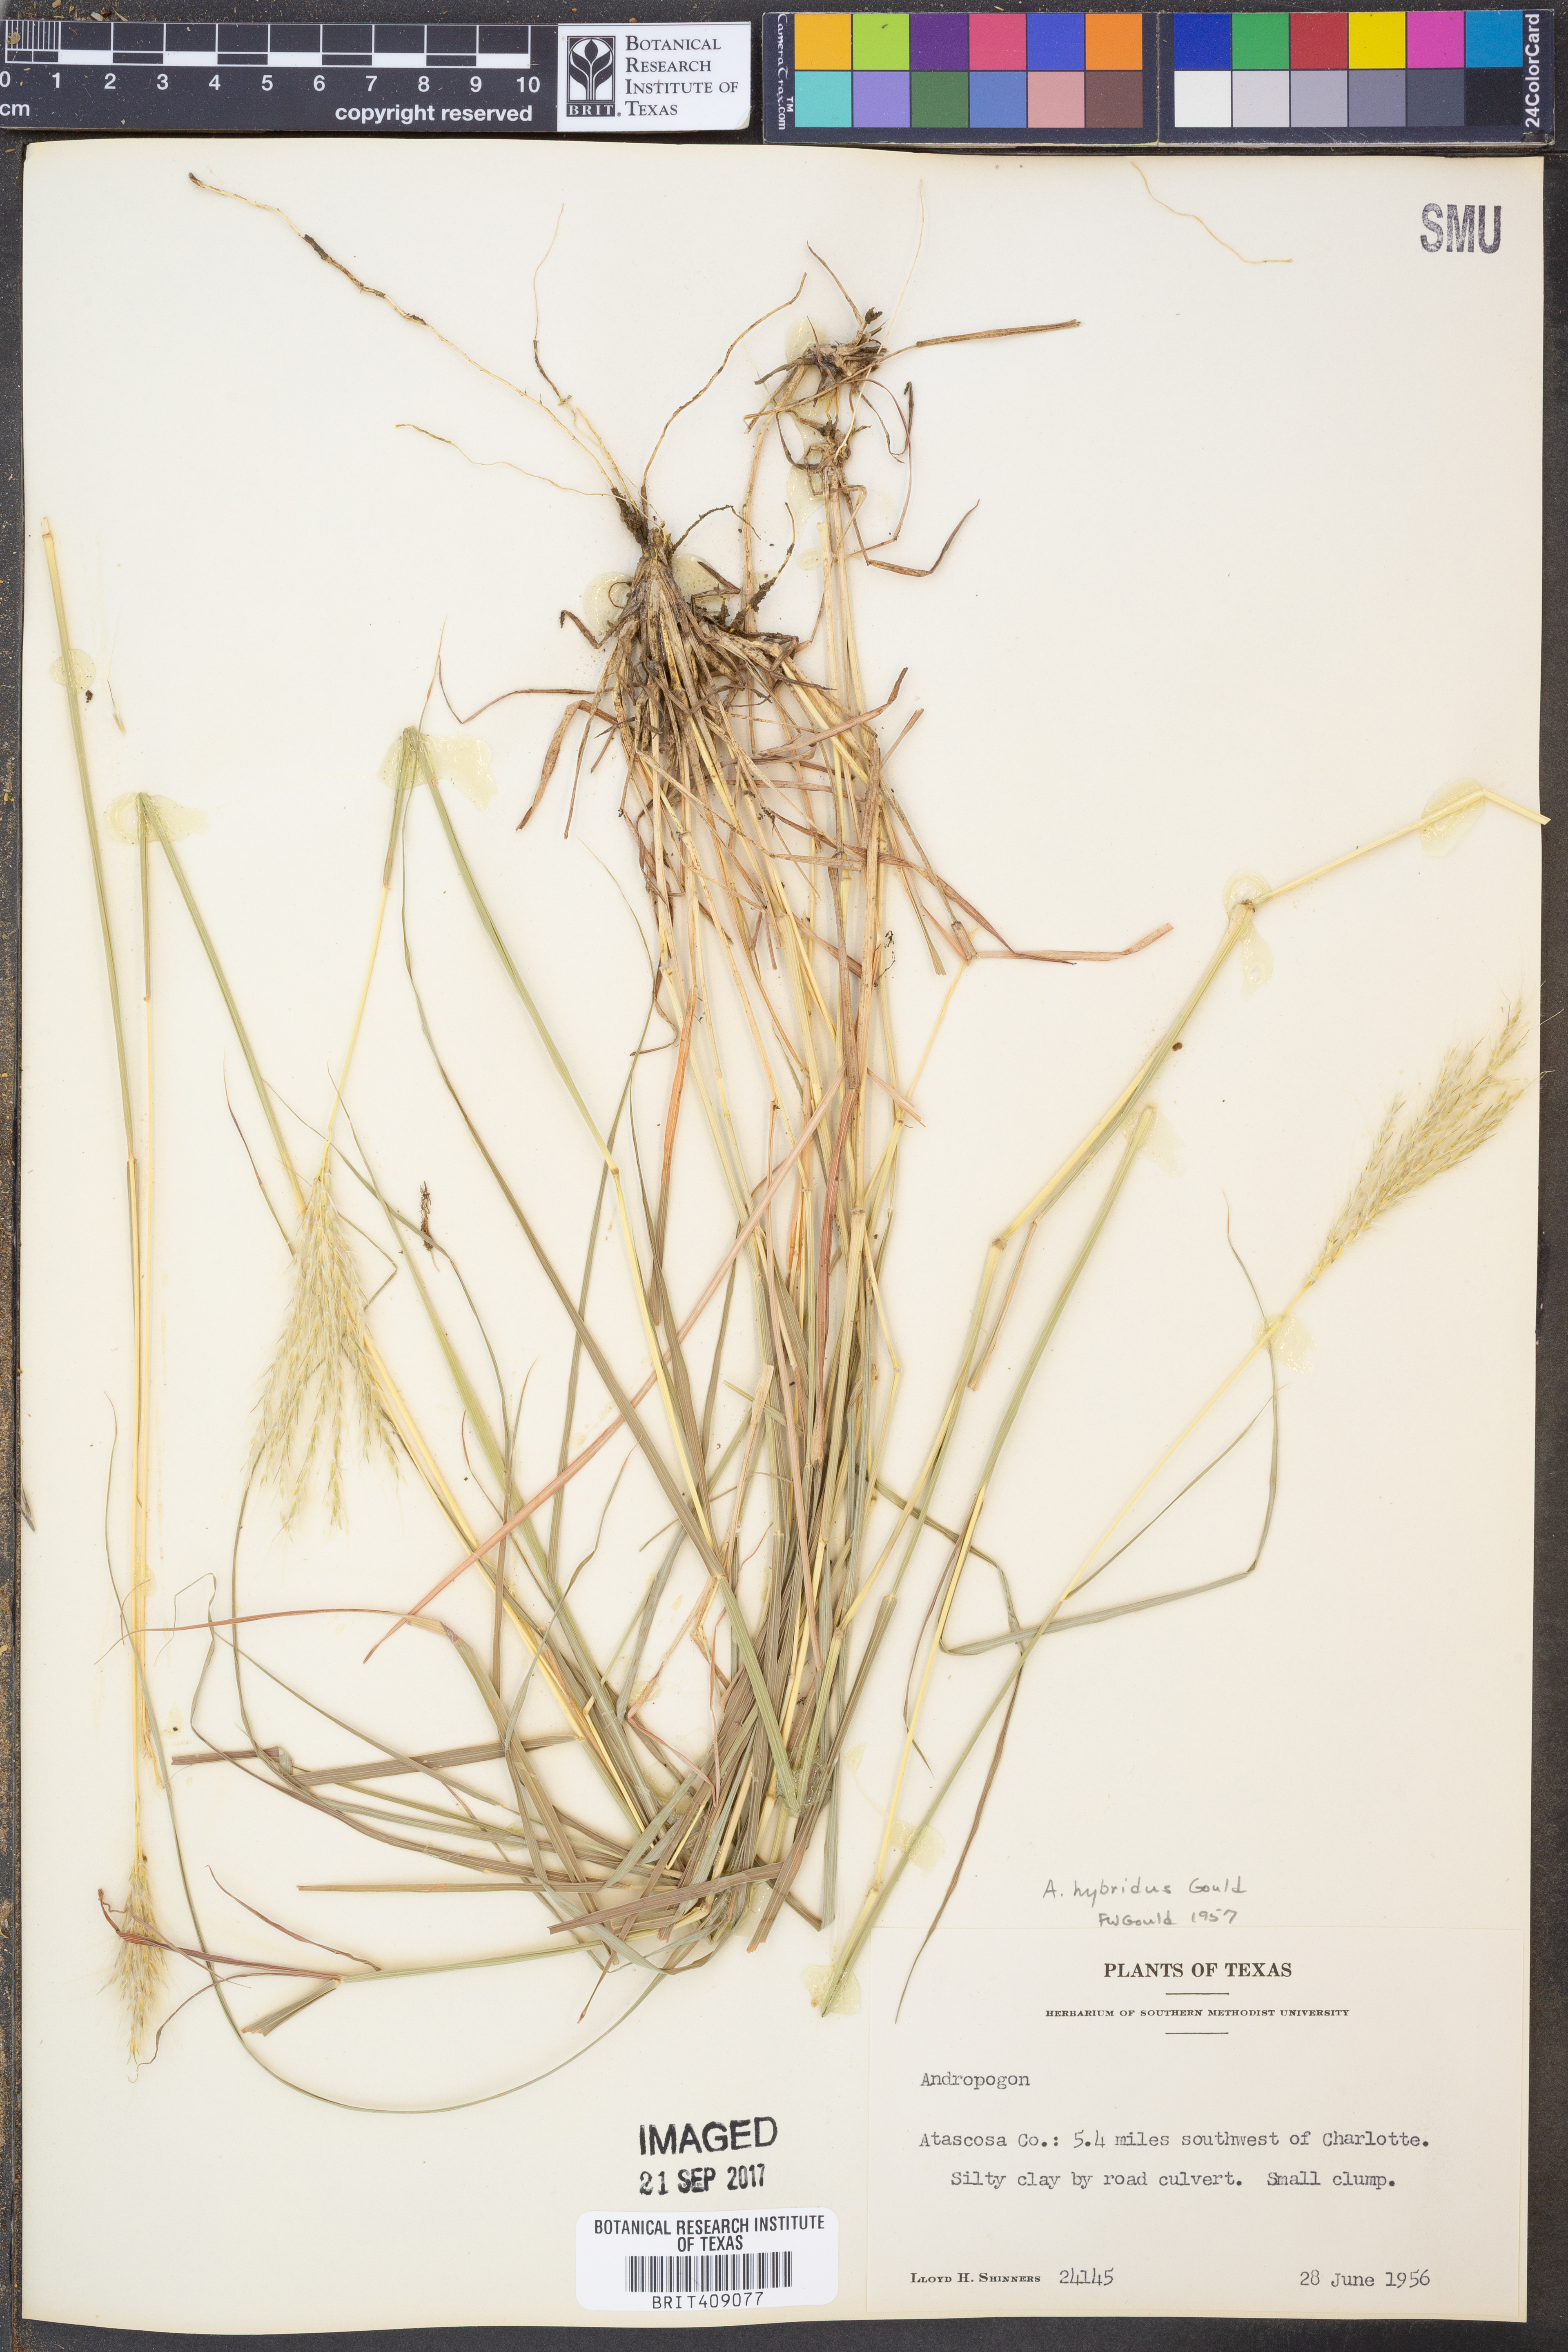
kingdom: Plantae
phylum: Tracheophyta
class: Liliopsida
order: Poales
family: Poaceae
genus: Bothriochloa
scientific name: Bothriochloa hybrida
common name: Hybrid bluestem
